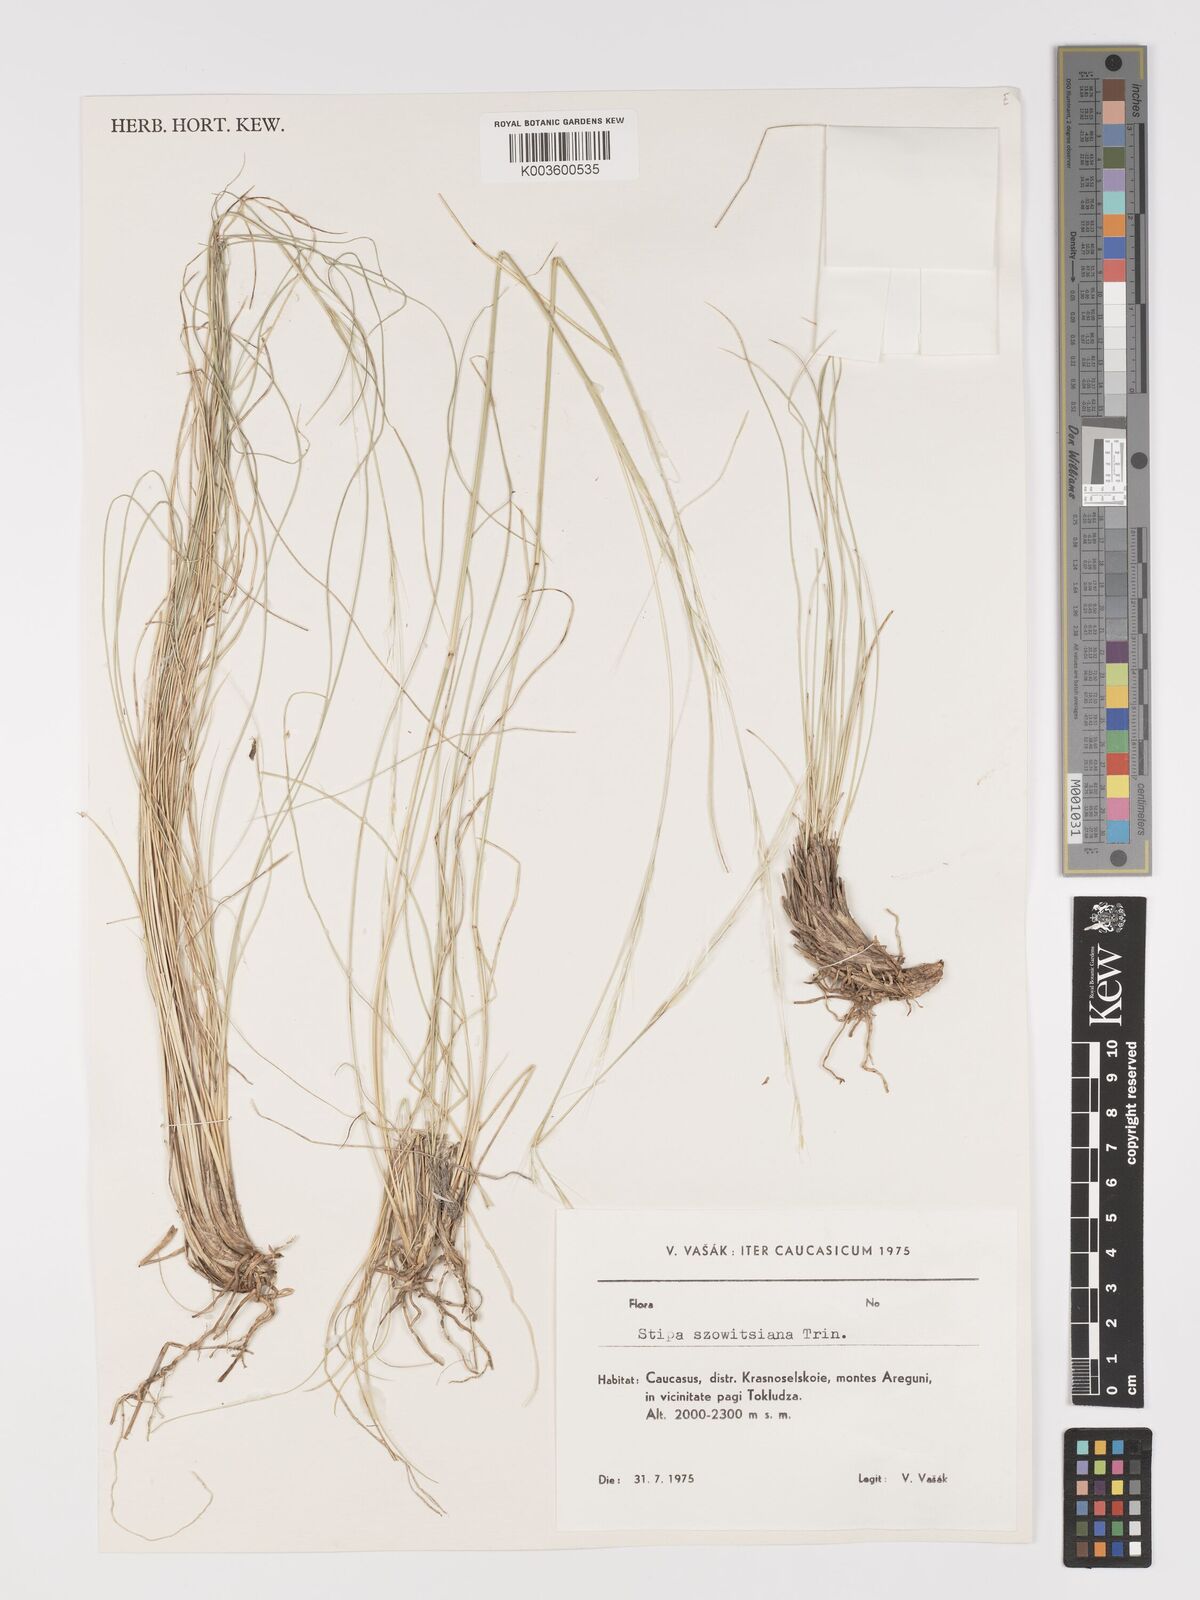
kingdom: Plantae
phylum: Tracheophyta
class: Liliopsida
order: Poales
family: Poaceae
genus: Stipa
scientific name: Stipa barbata
